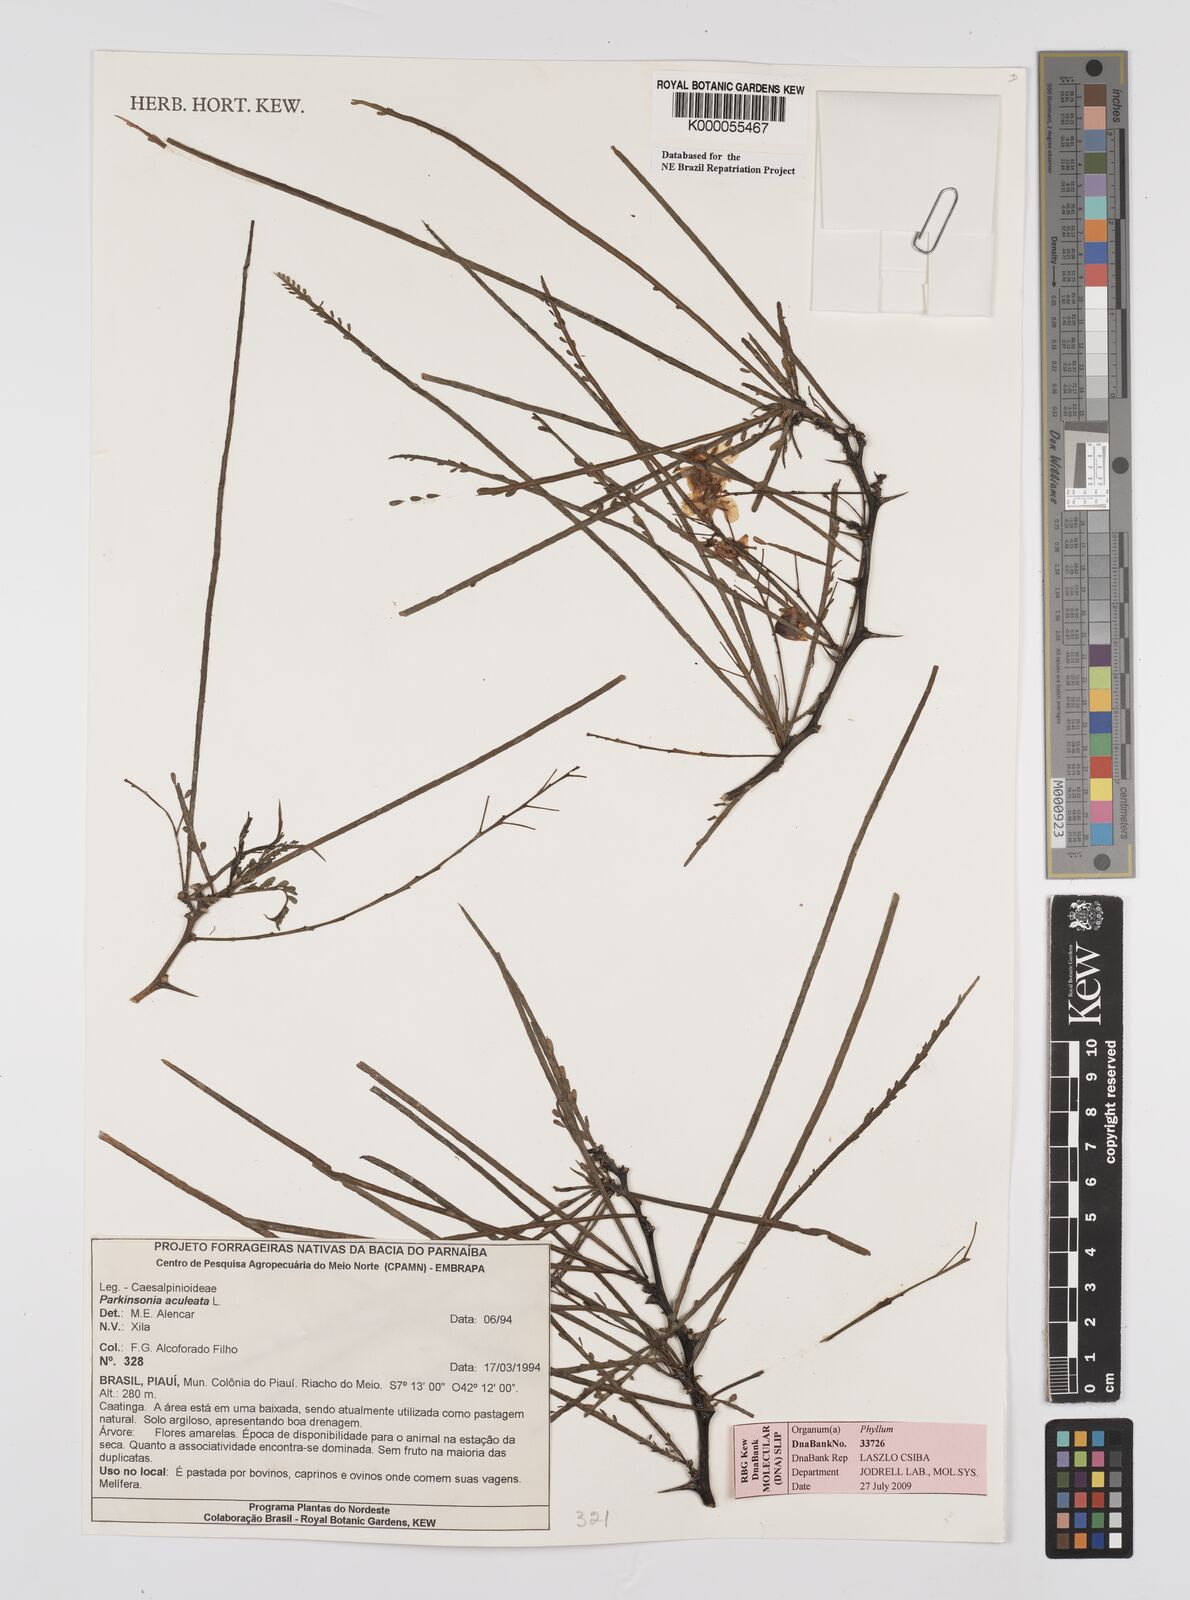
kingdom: Plantae
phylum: Tracheophyta
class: Magnoliopsida
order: Fabales
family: Fabaceae
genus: Parkinsonia
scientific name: Parkinsonia aculeata
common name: Jerusalem thorn
